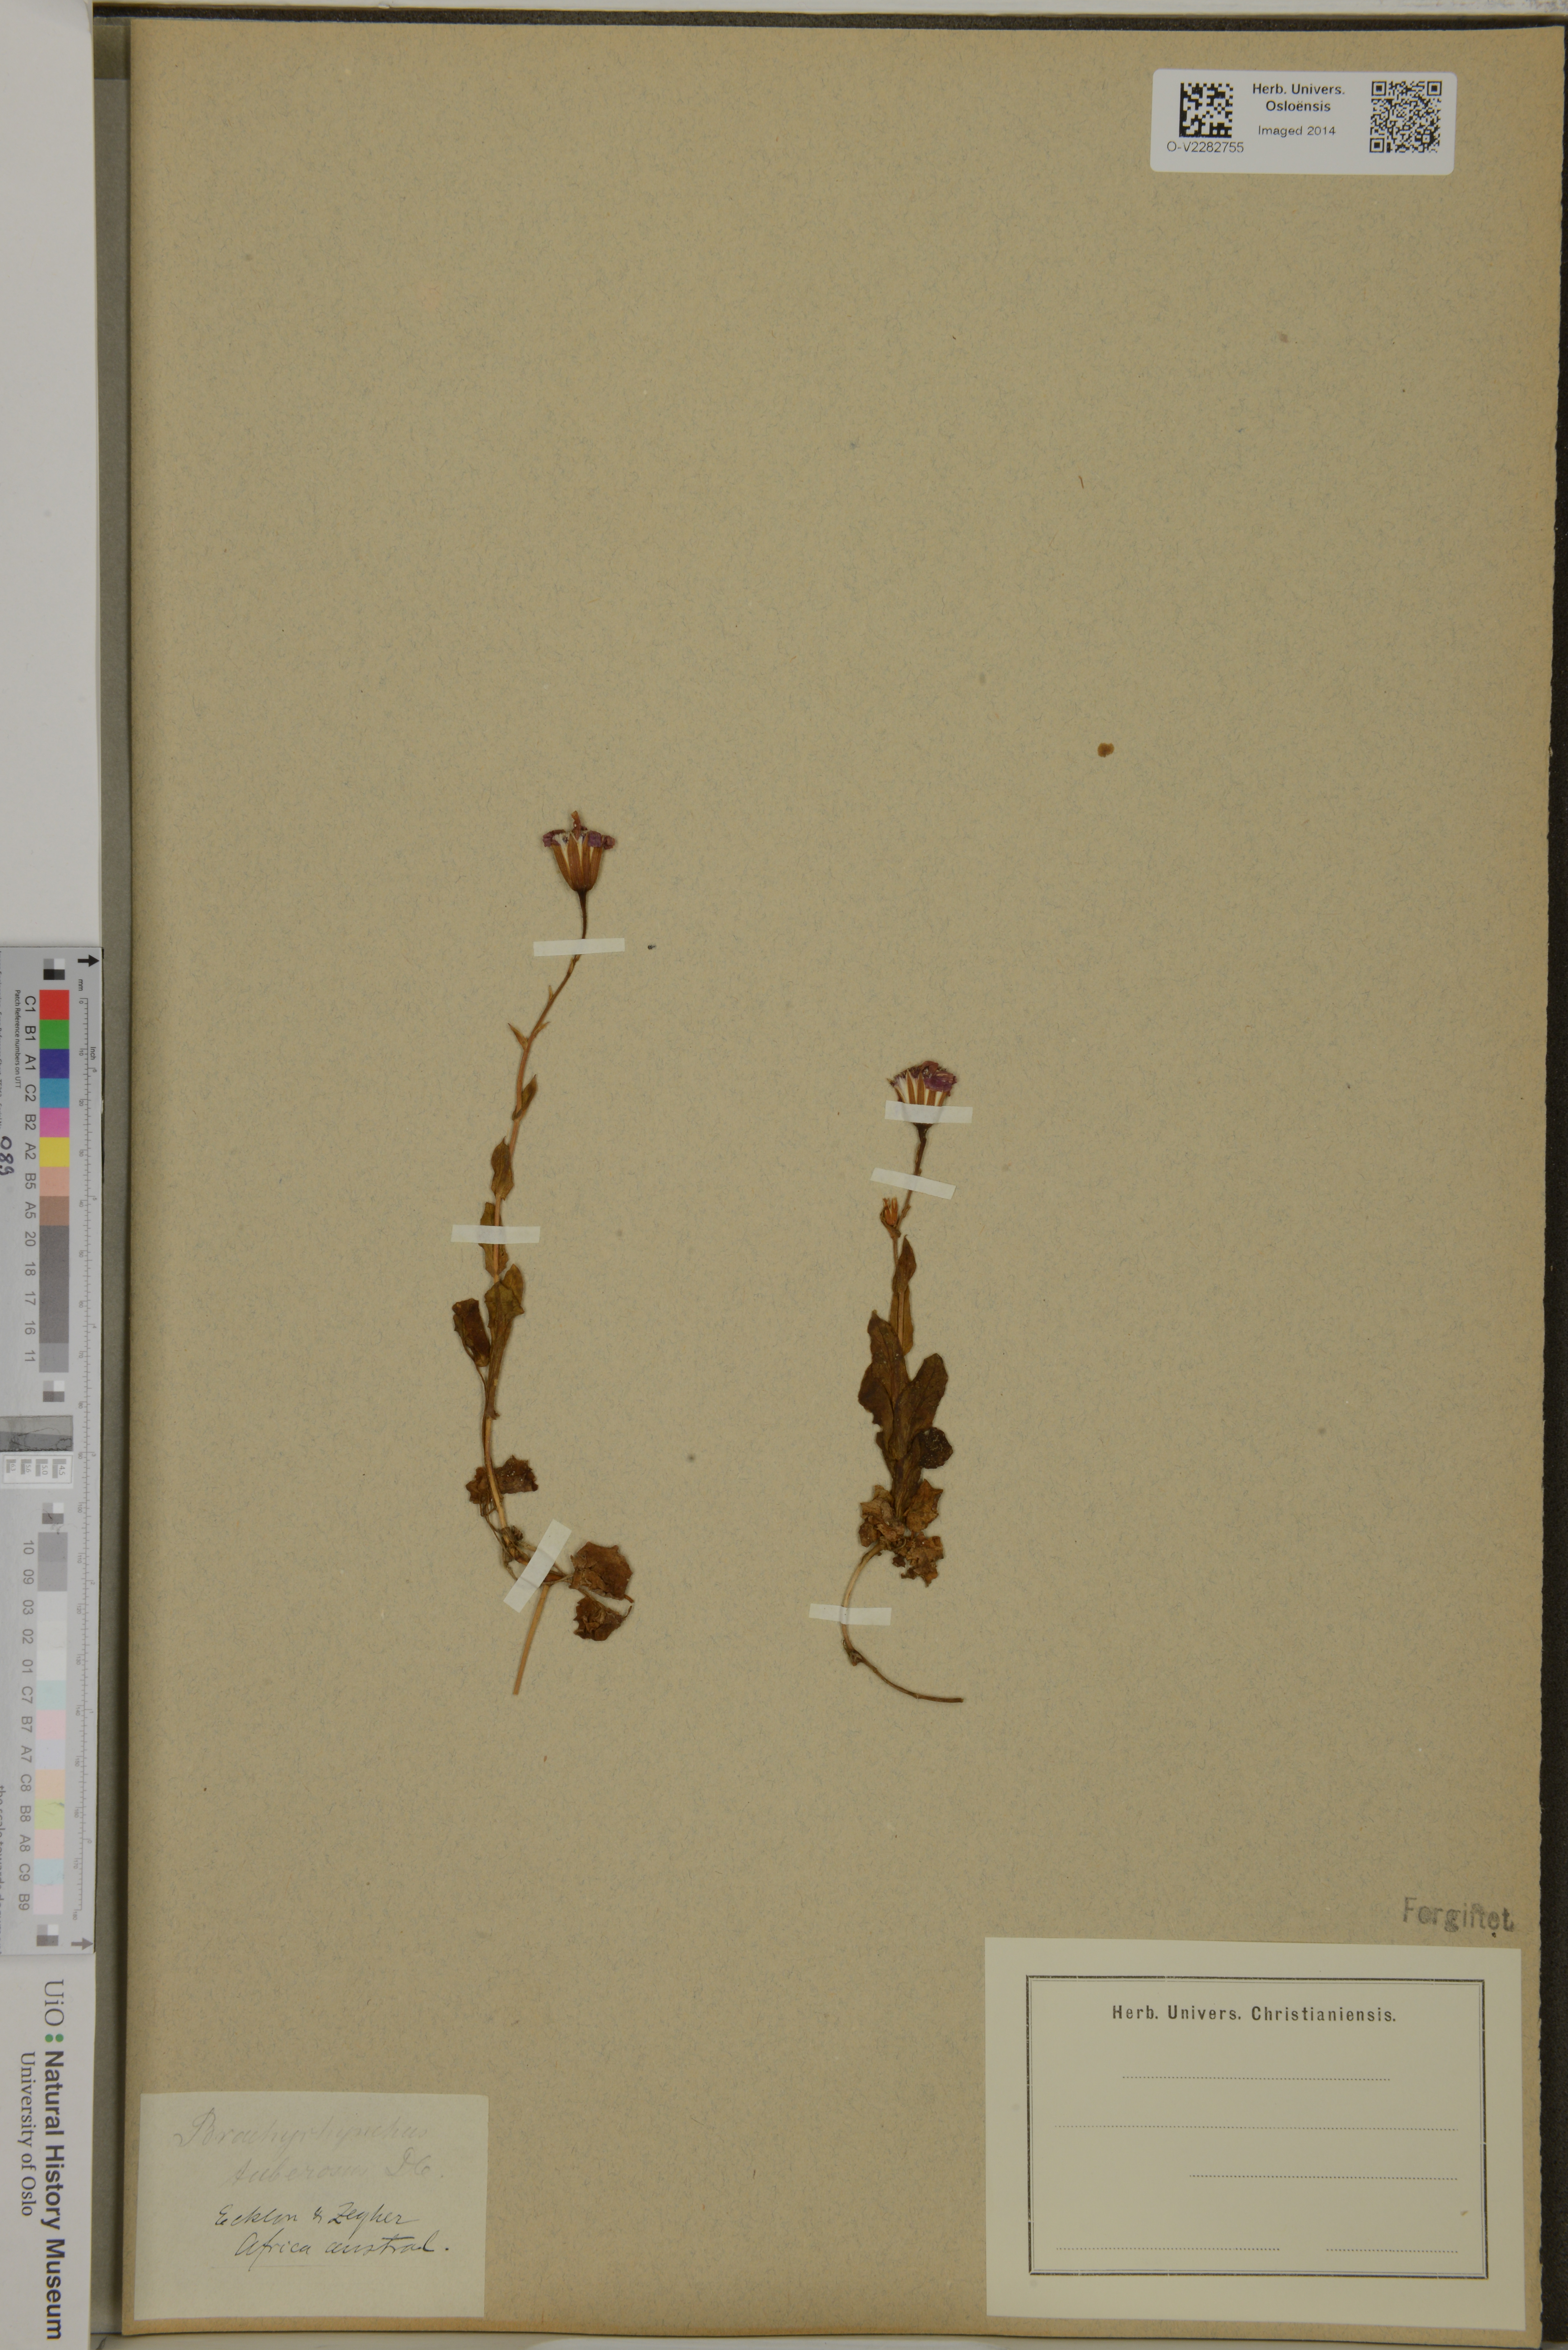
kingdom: Plantae
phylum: Tracheophyta
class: Magnoliopsida
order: Asterales
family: Asteraceae
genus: Bolandia
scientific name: Bolandia pinnatifida
